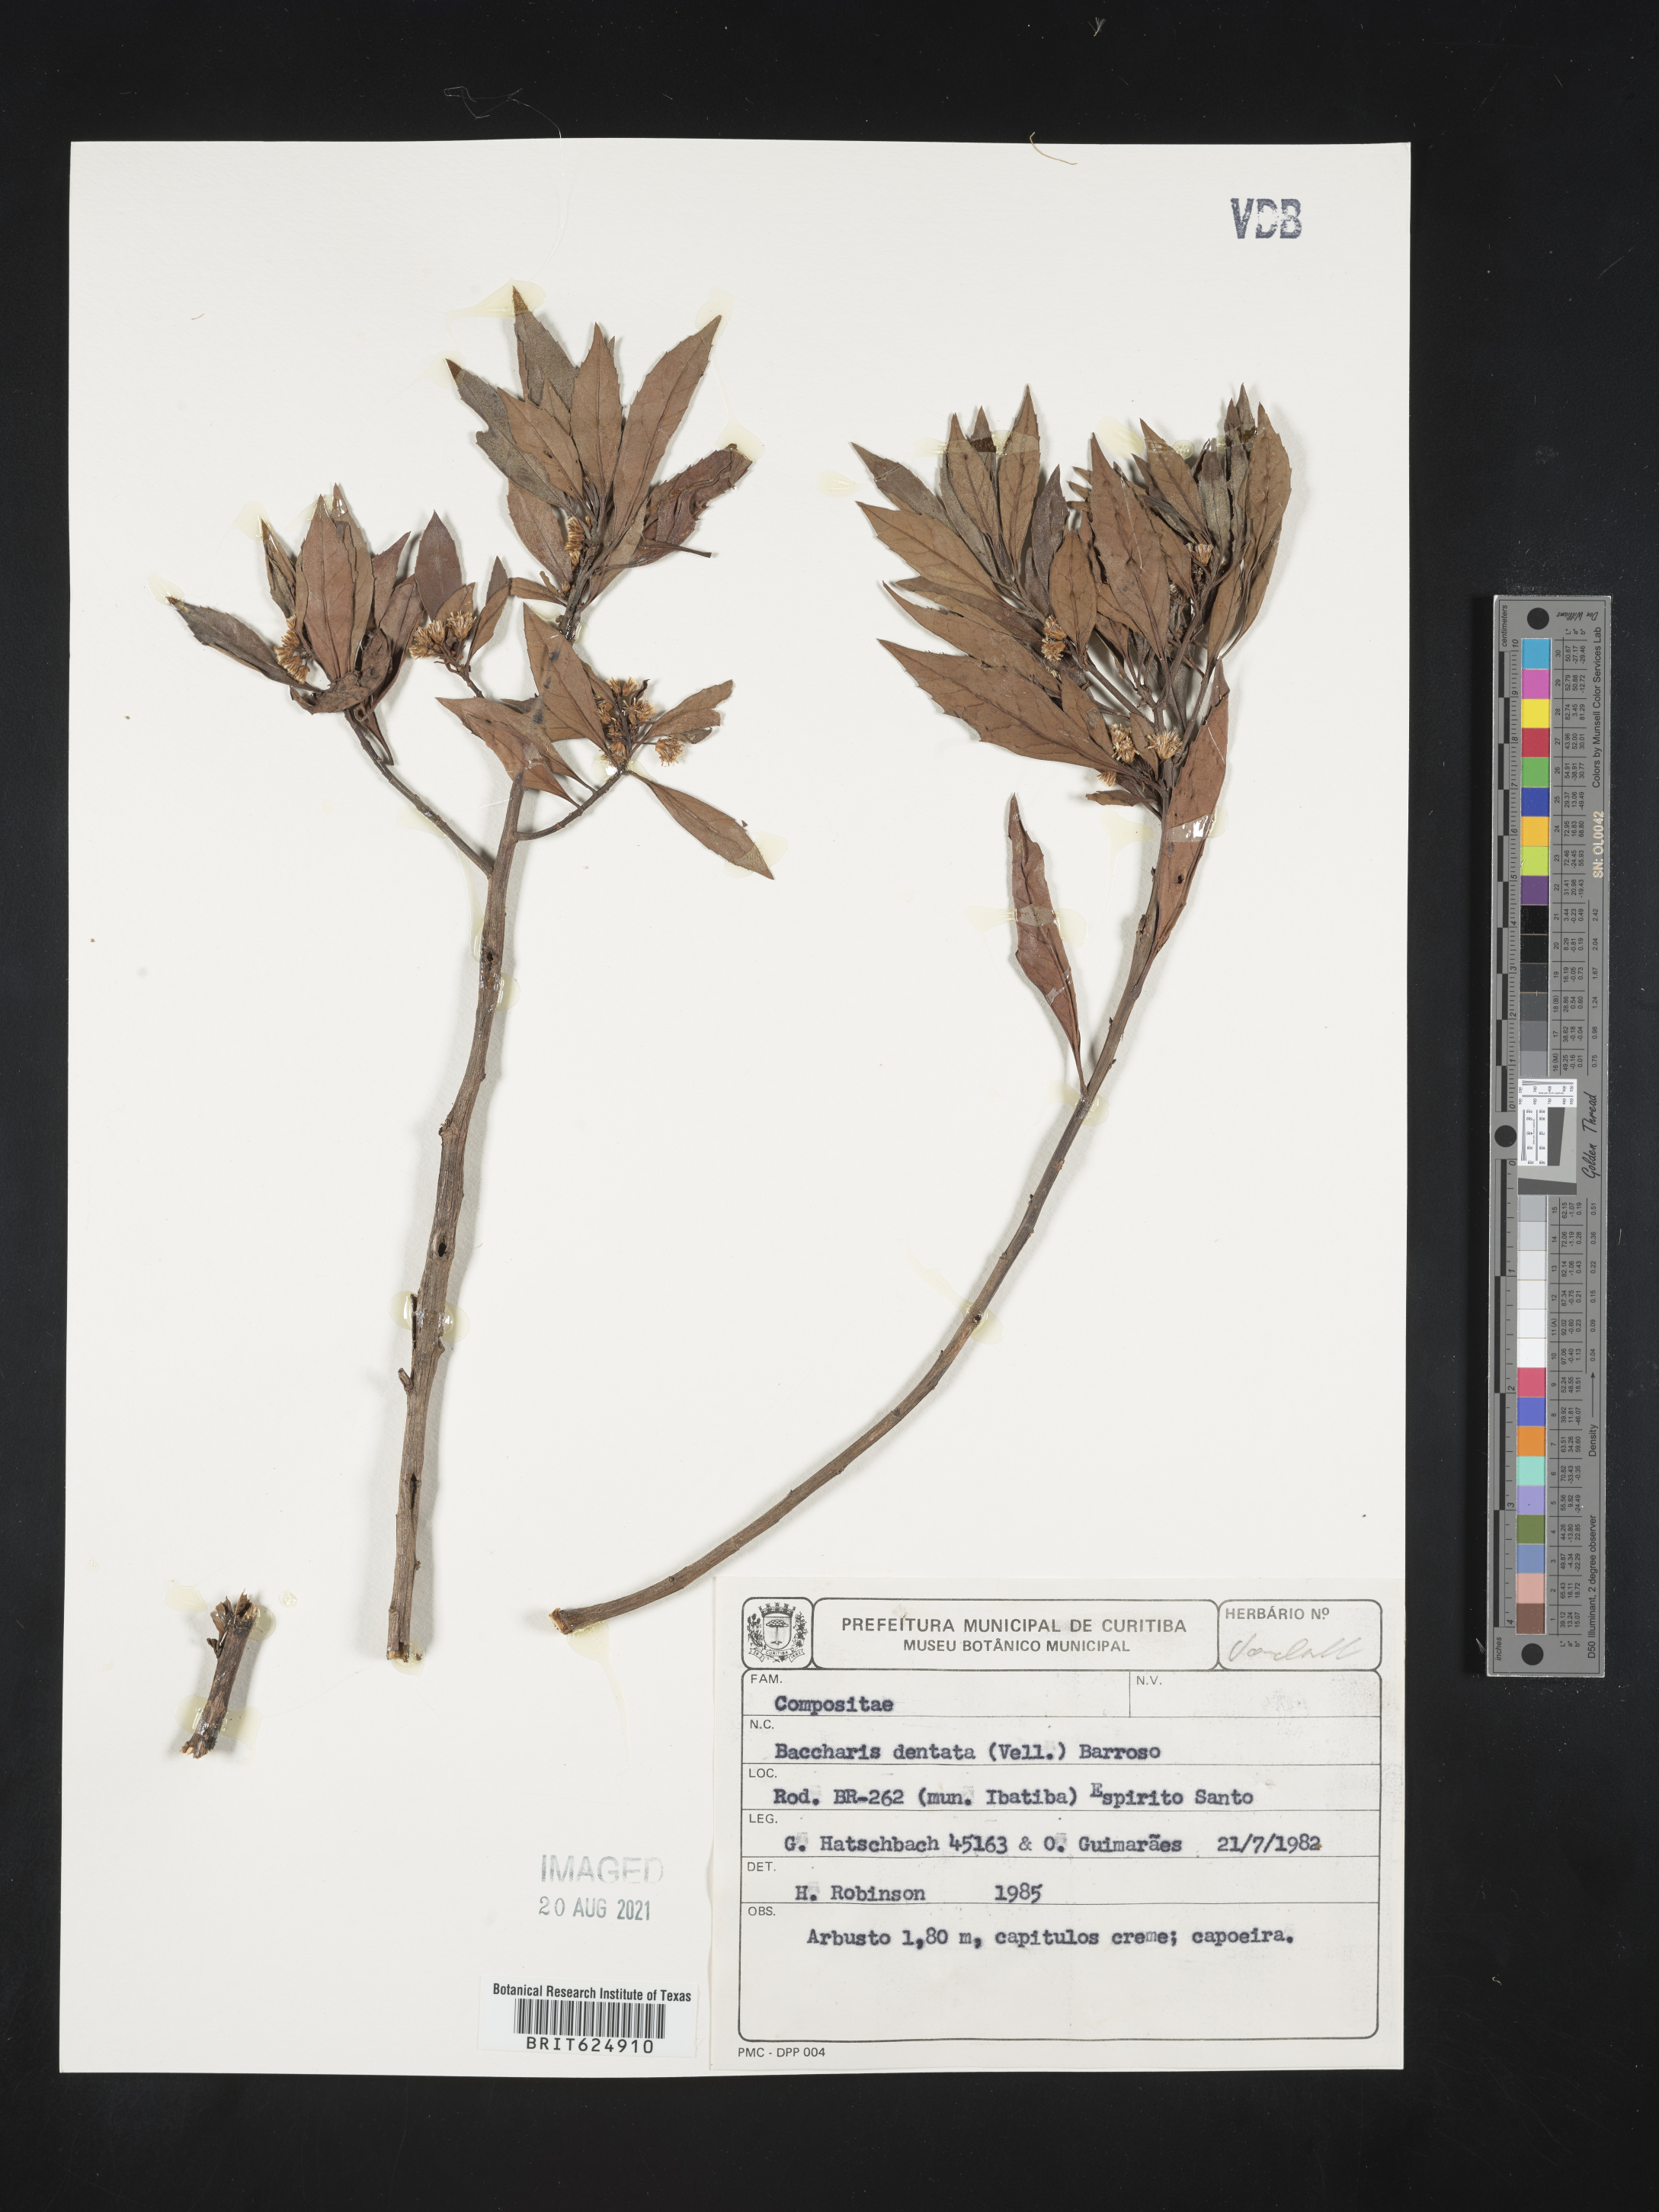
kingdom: Plantae
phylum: Tracheophyta
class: Magnoliopsida
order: Asterales
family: Asteraceae
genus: Baccharis
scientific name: Baccharis dentata
